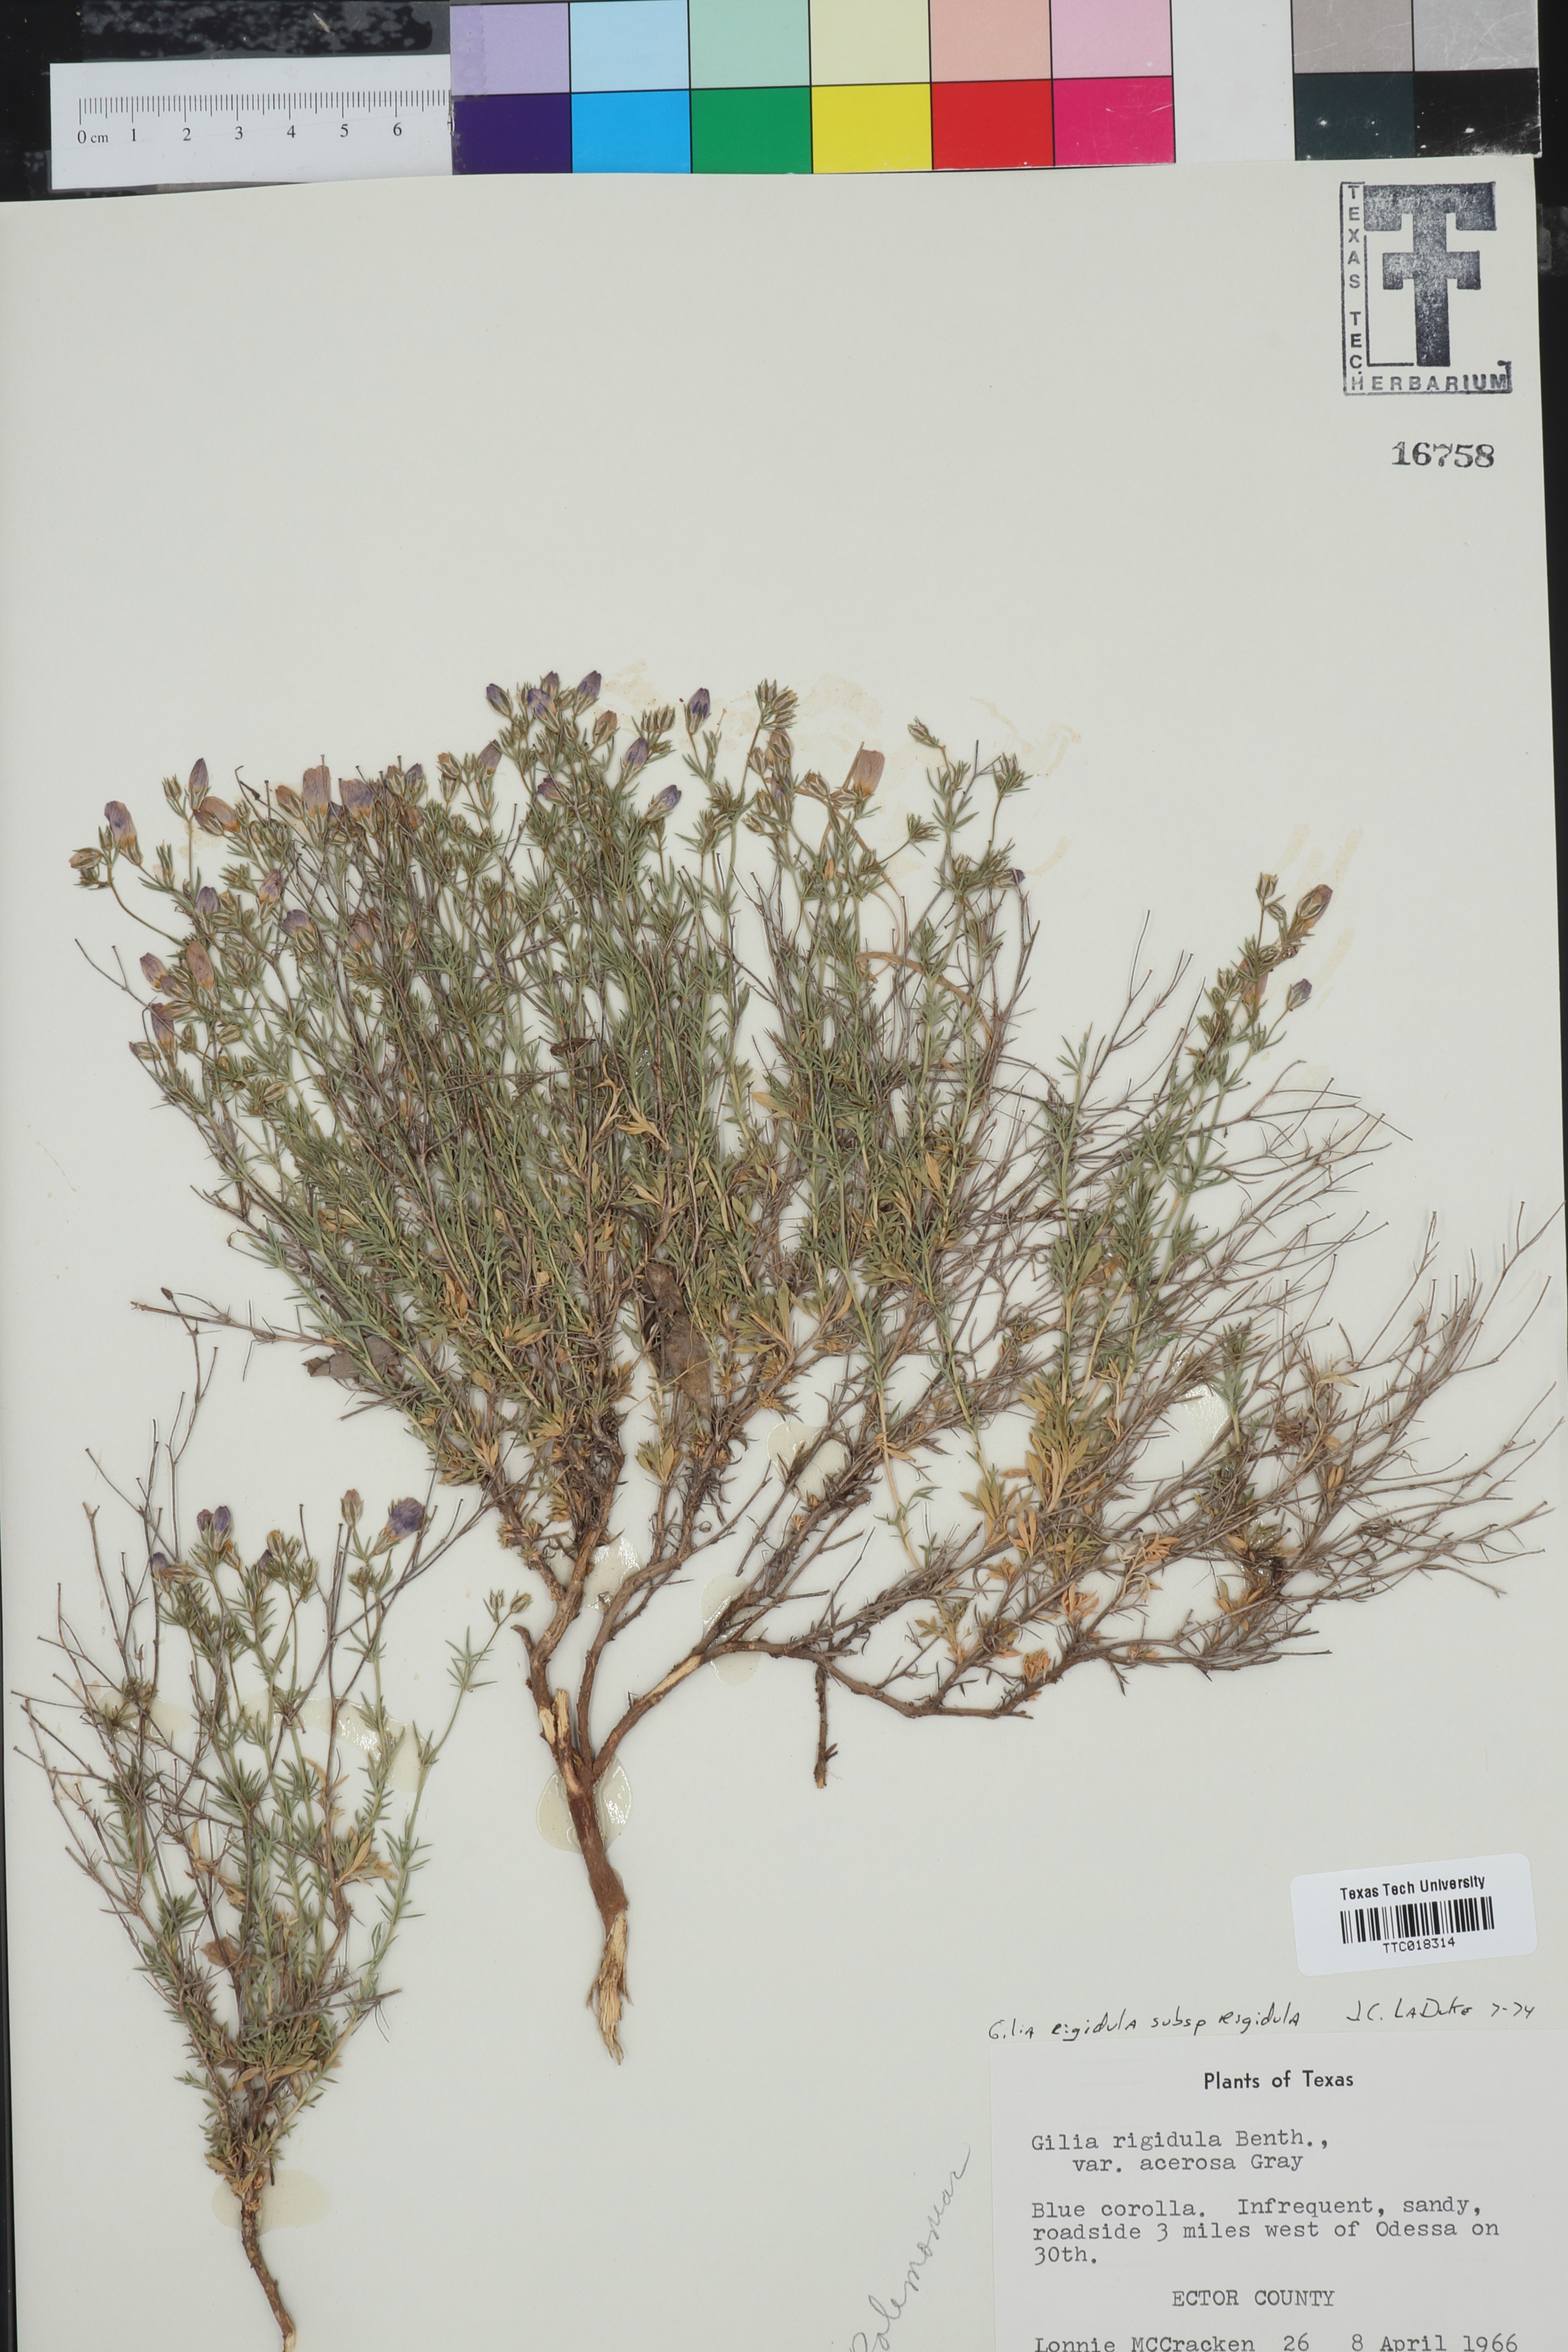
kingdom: Plantae
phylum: Tracheophyta
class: Magnoliopsida
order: Ericales
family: Polemoniaceae
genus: Giliastrum
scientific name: Giliastrum rigidulum
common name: Bluebowls
